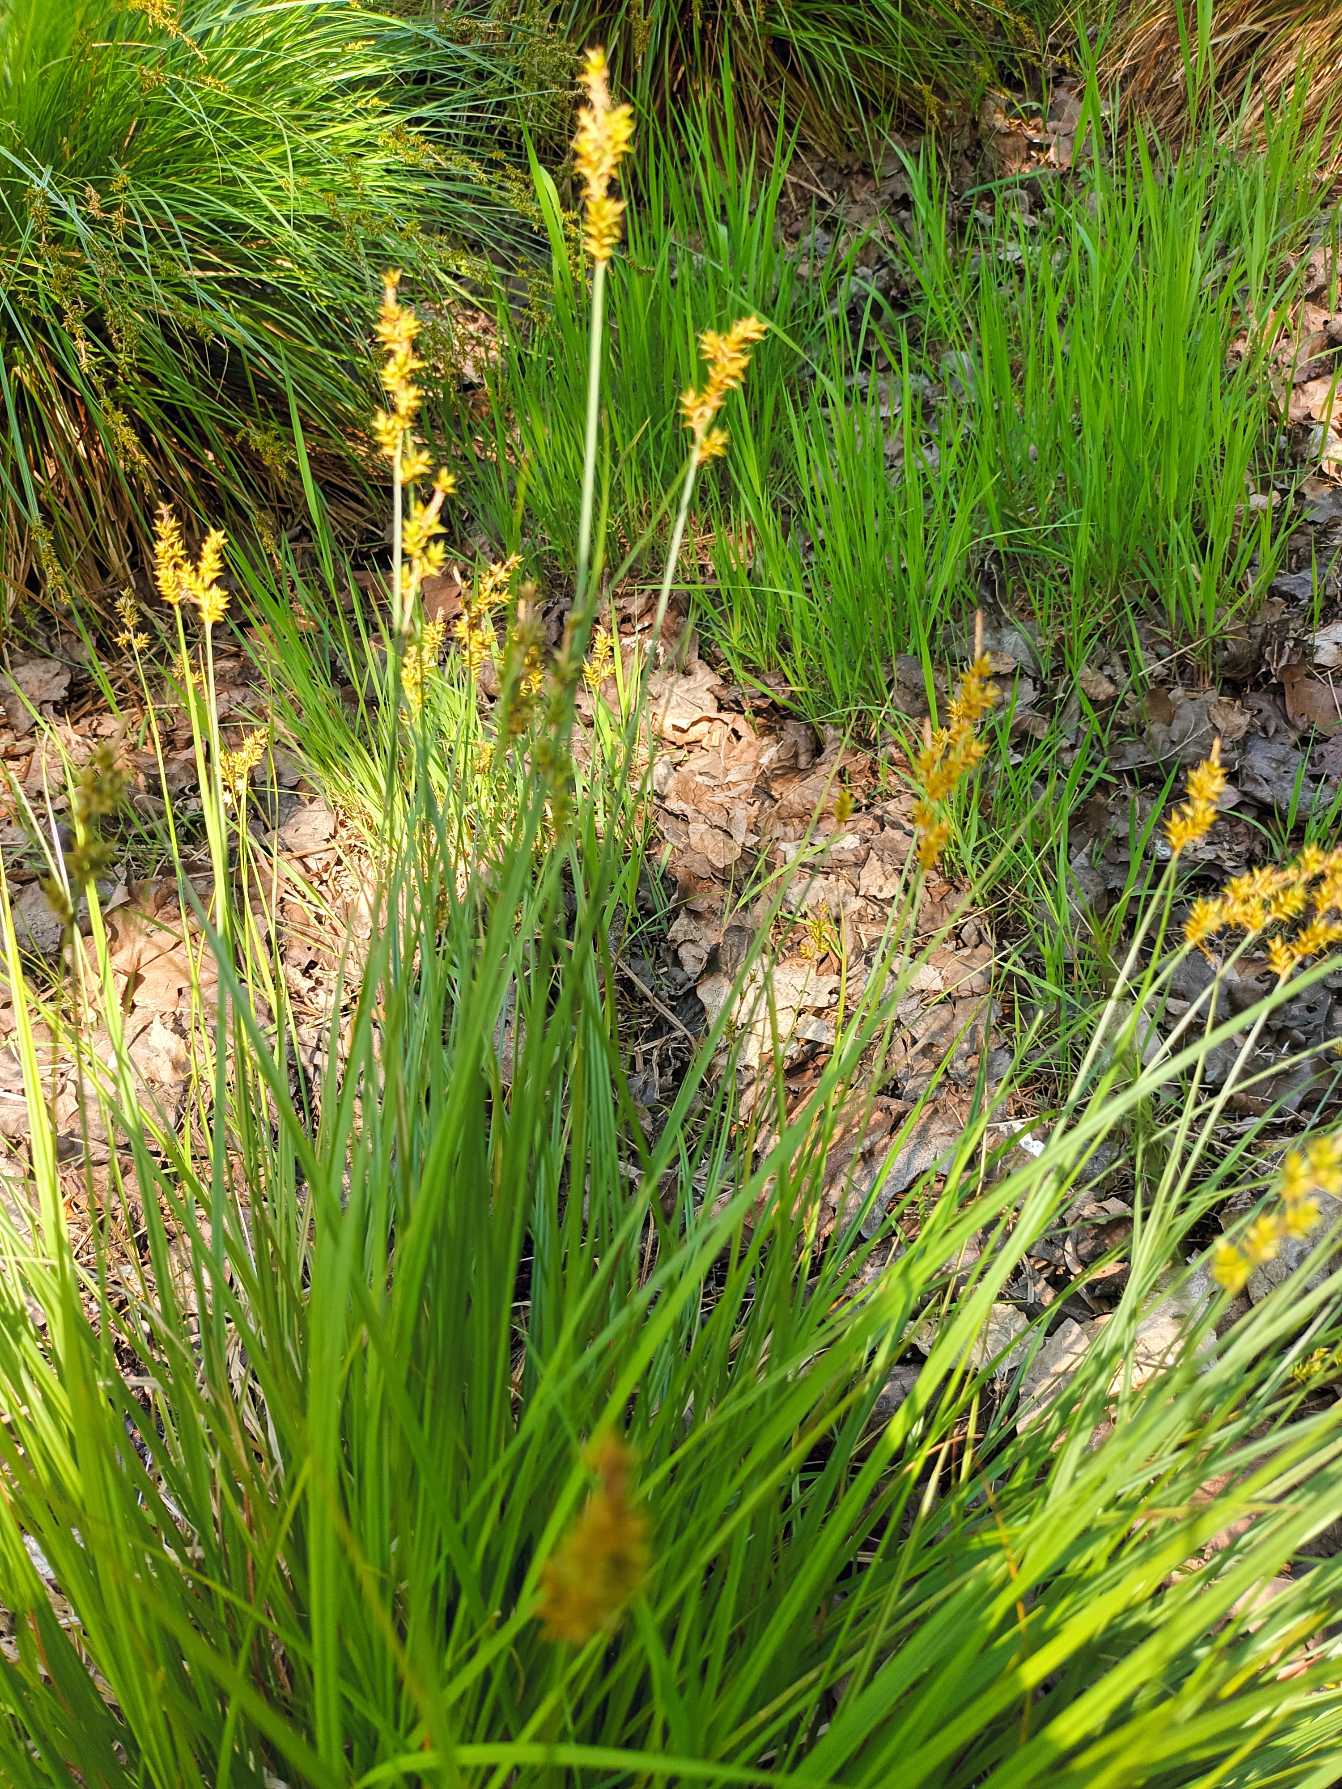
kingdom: Plantae
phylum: Tracheophyta
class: Liliopsida
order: Poales
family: Cyperaceae
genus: Carex
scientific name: Carex elongata
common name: Forlænget star
